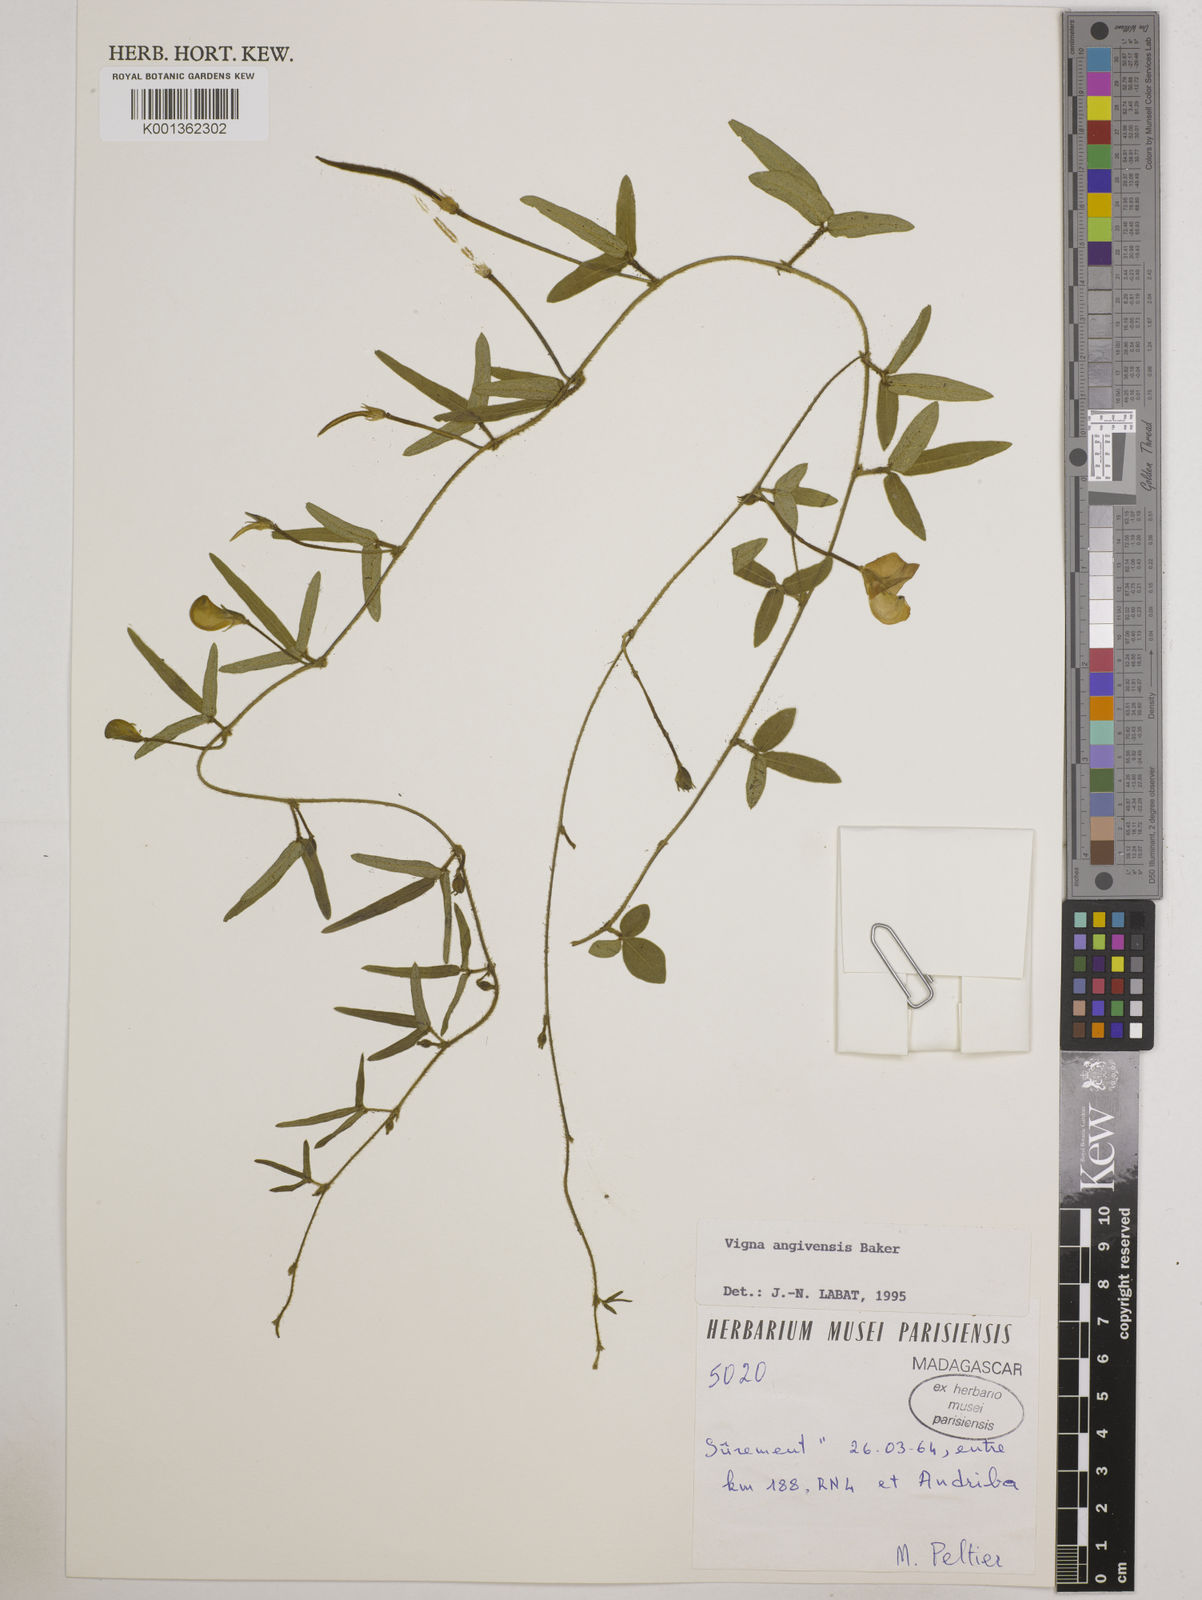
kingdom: Plantae
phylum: Tracheophyta
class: Magnoliopsida
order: Fabales
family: Fabaceae
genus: Vigna
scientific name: Vigna angivensis
